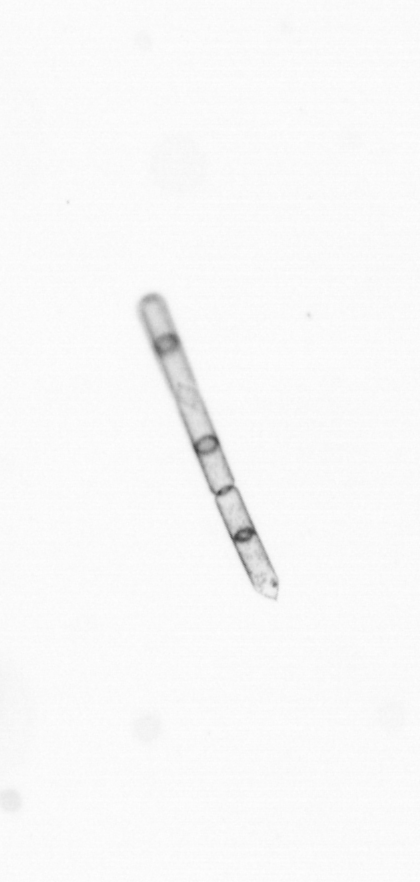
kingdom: Chromista
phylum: Ochrophyta
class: Bacillariophyceae
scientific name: Bacillariophyceae
